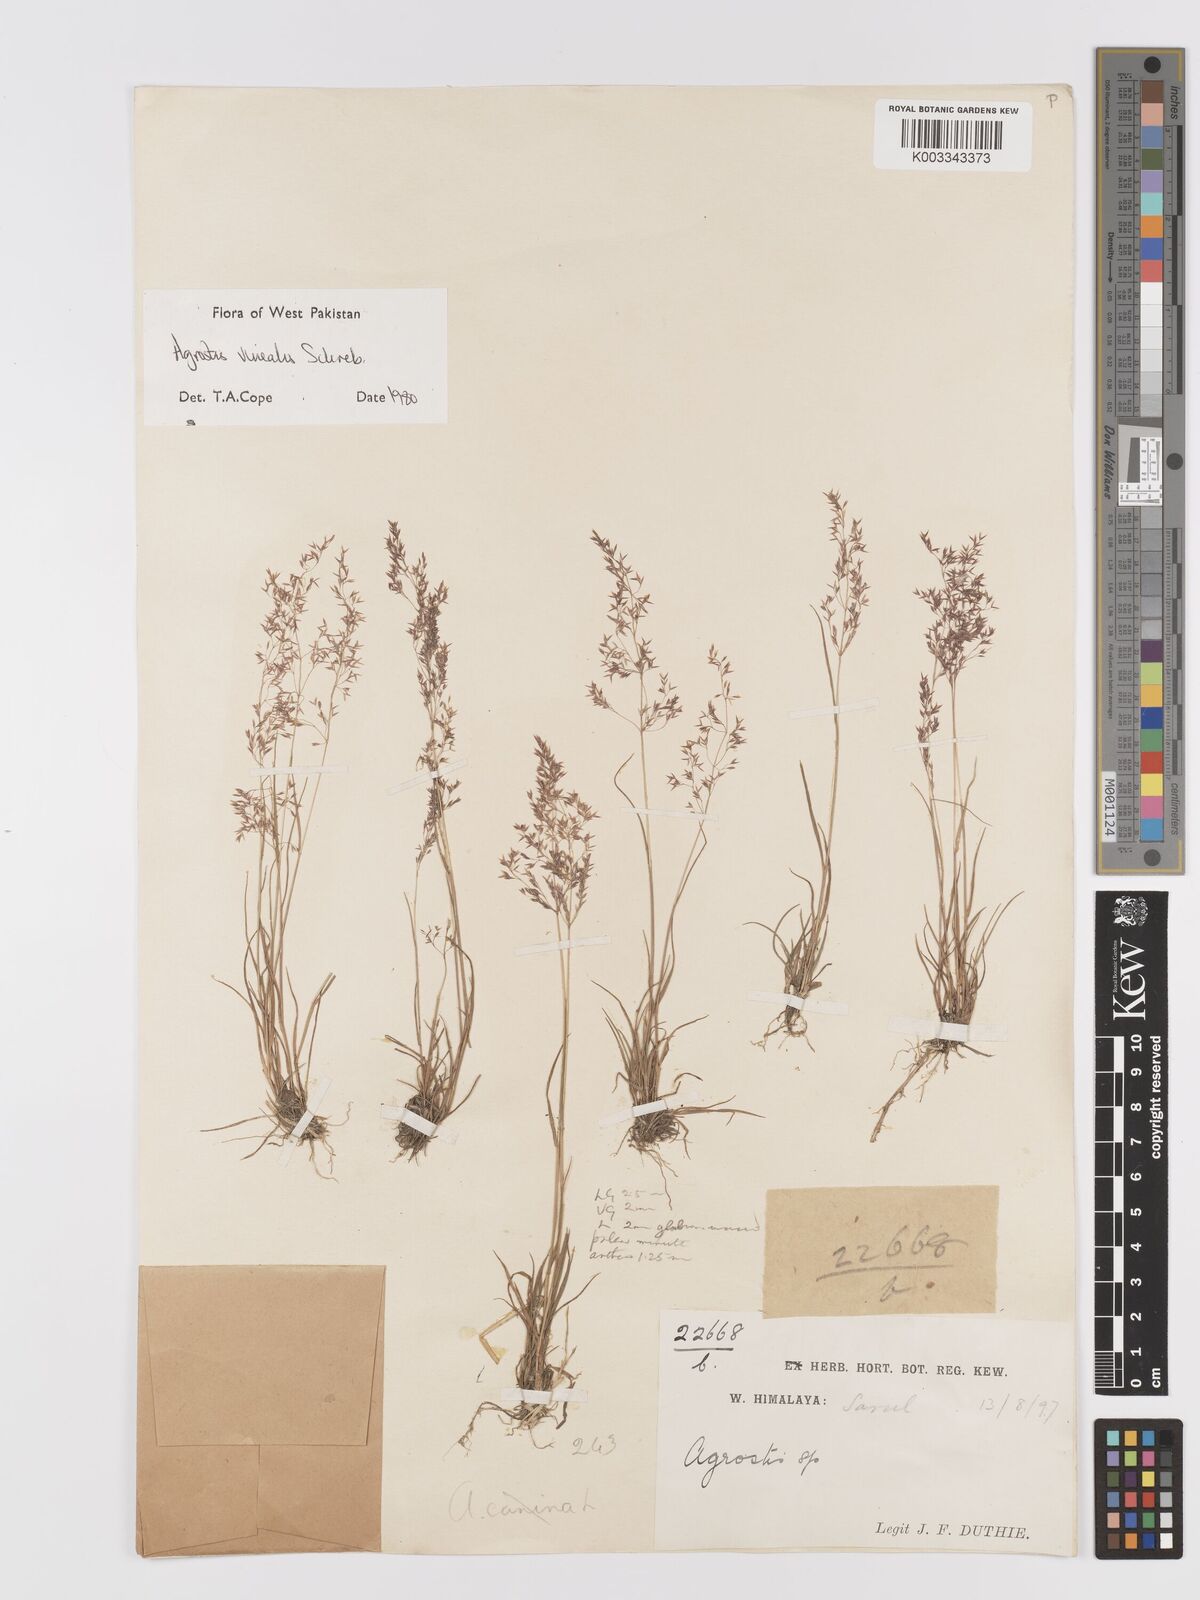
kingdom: Plantae
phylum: Tracheophyta
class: Liliopsida
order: Poales
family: Poaceae
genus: Agrostis
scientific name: Agrostis vinealis
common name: Brown bent
